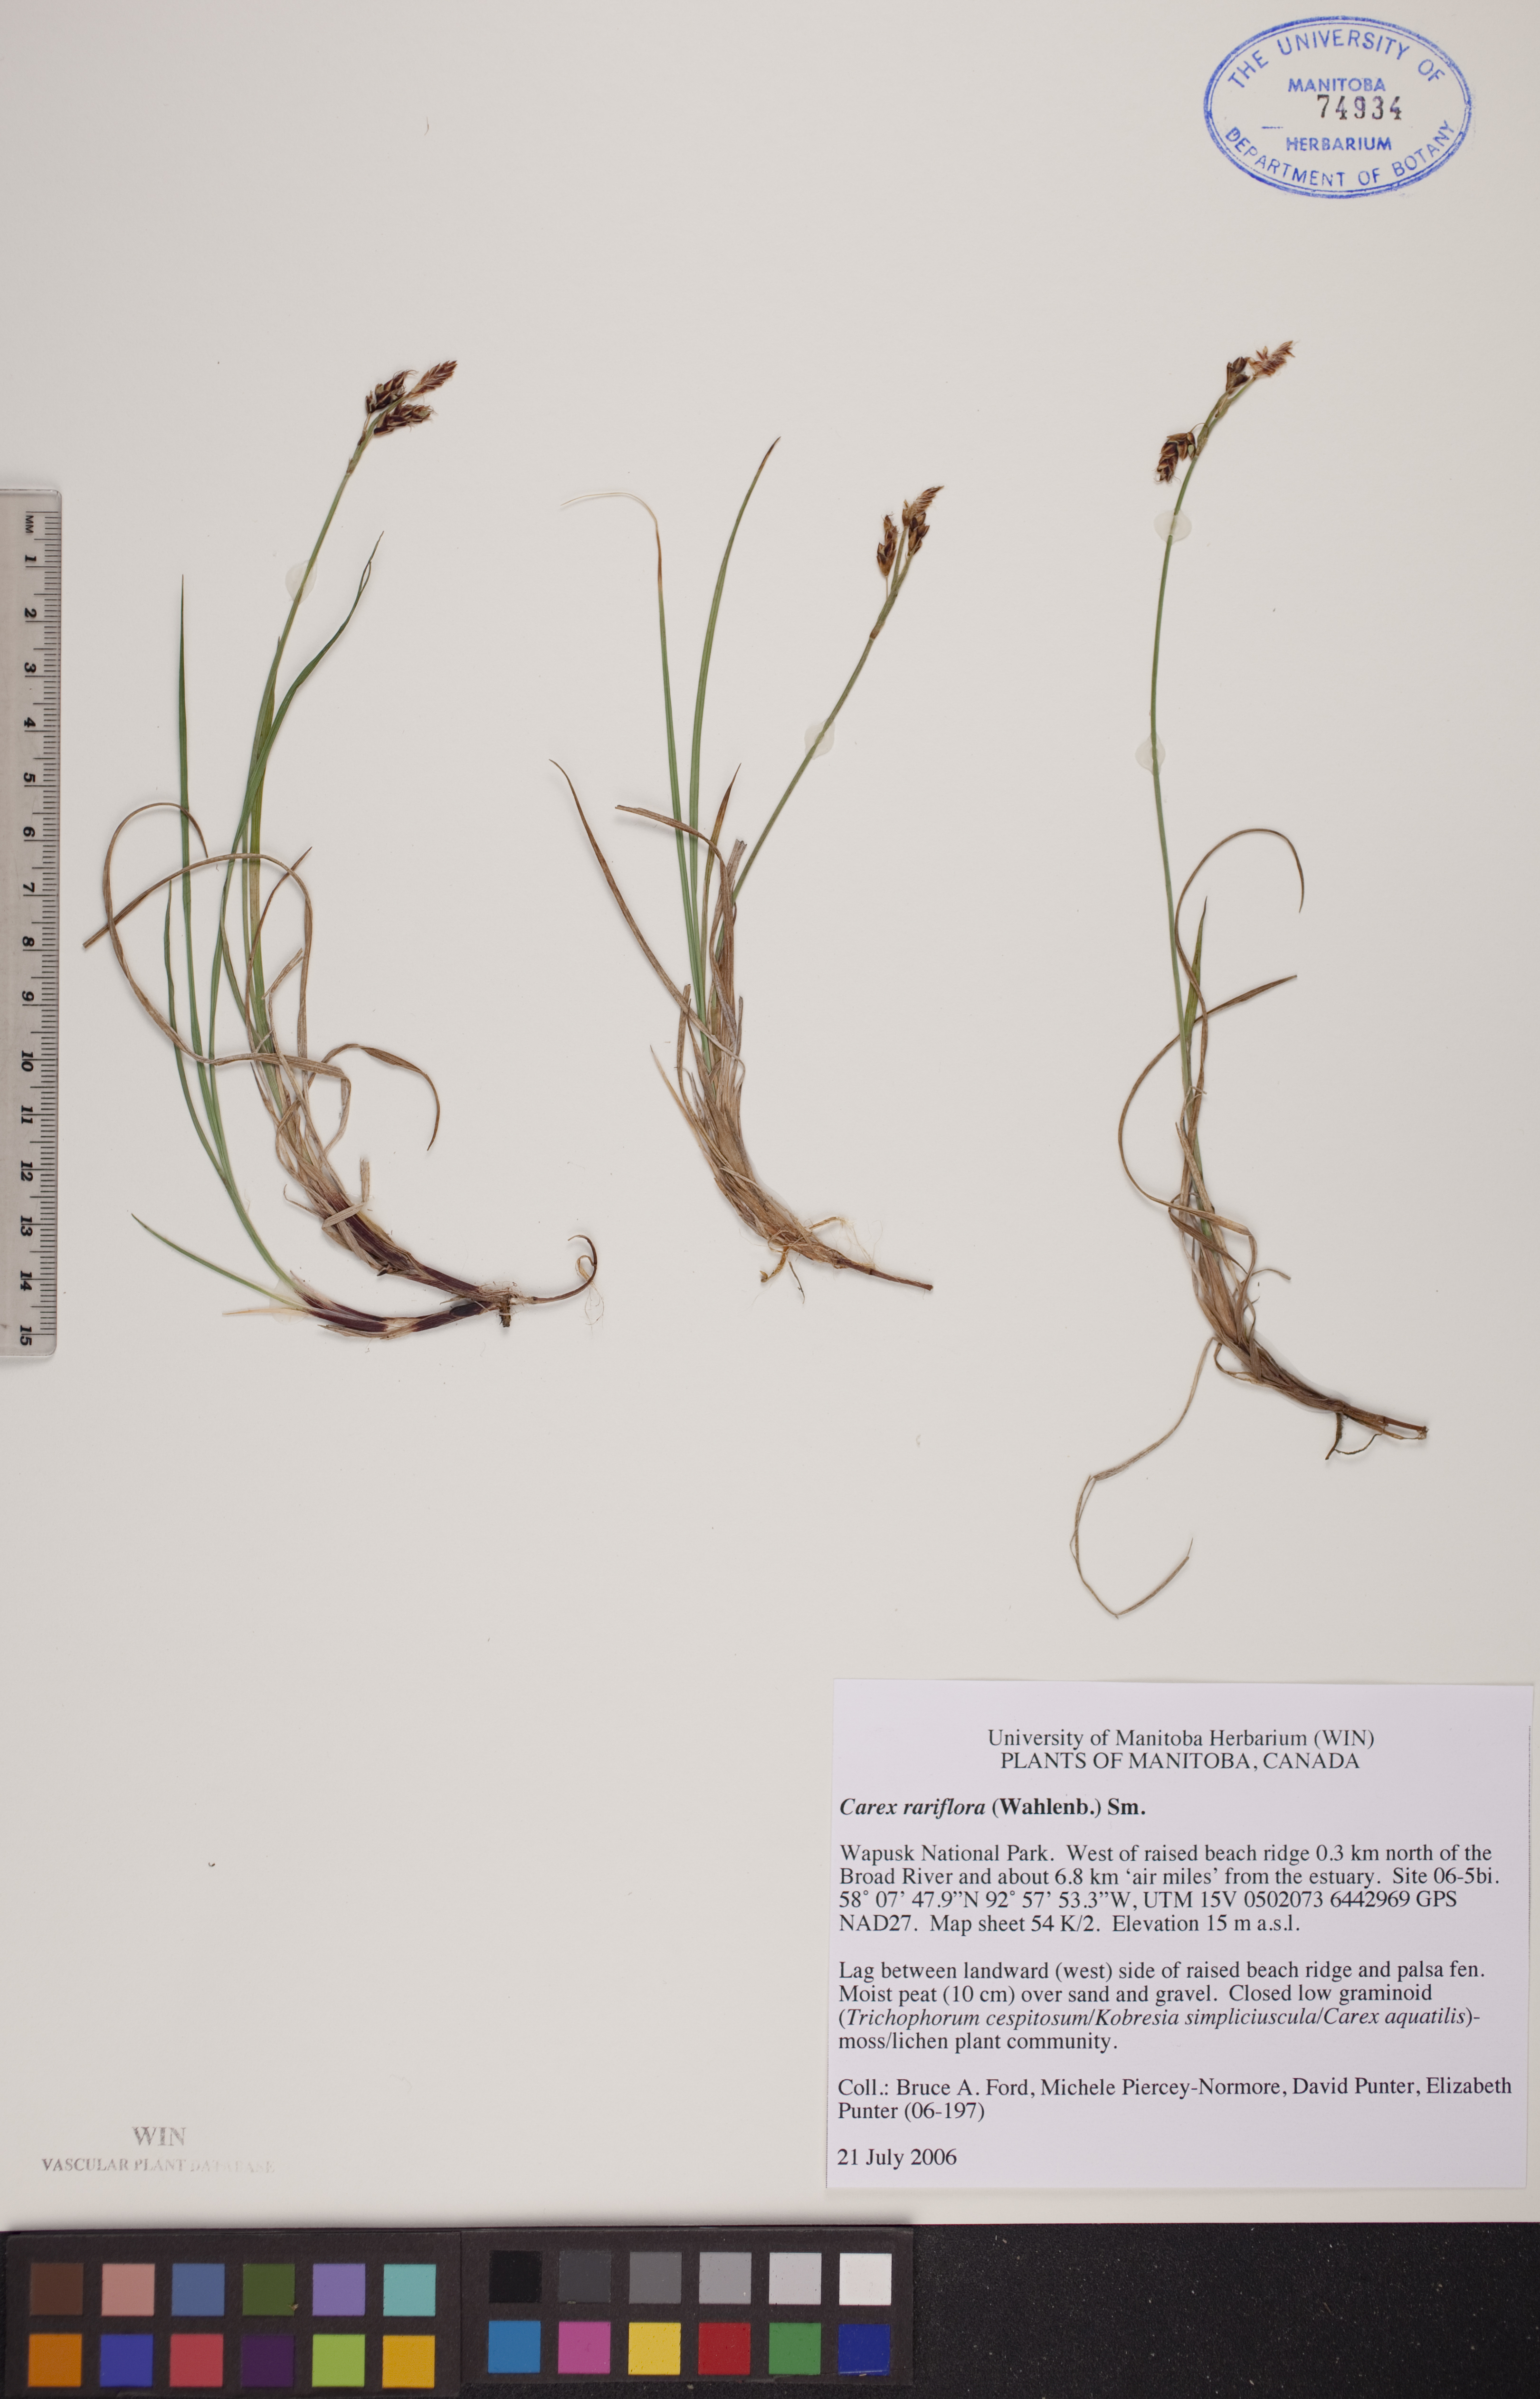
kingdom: Plantae
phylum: Tracheophyta
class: Liliopsida
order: Poales
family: Cyperaceae
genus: Carex
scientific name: Carex rariflora
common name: Loose-flowered alpine sedge
